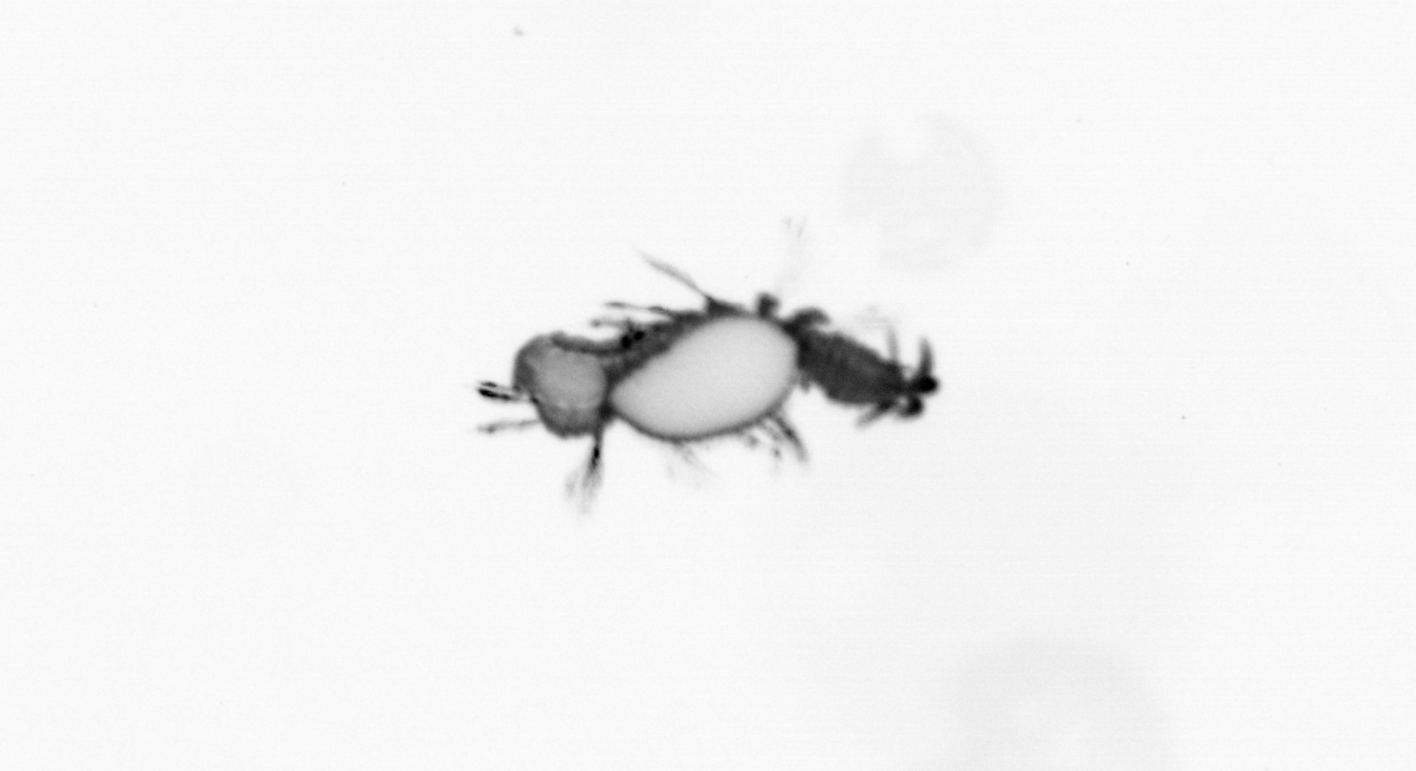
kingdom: Animalia
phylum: Annelida
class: Polychaeta
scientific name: Polychaeta
